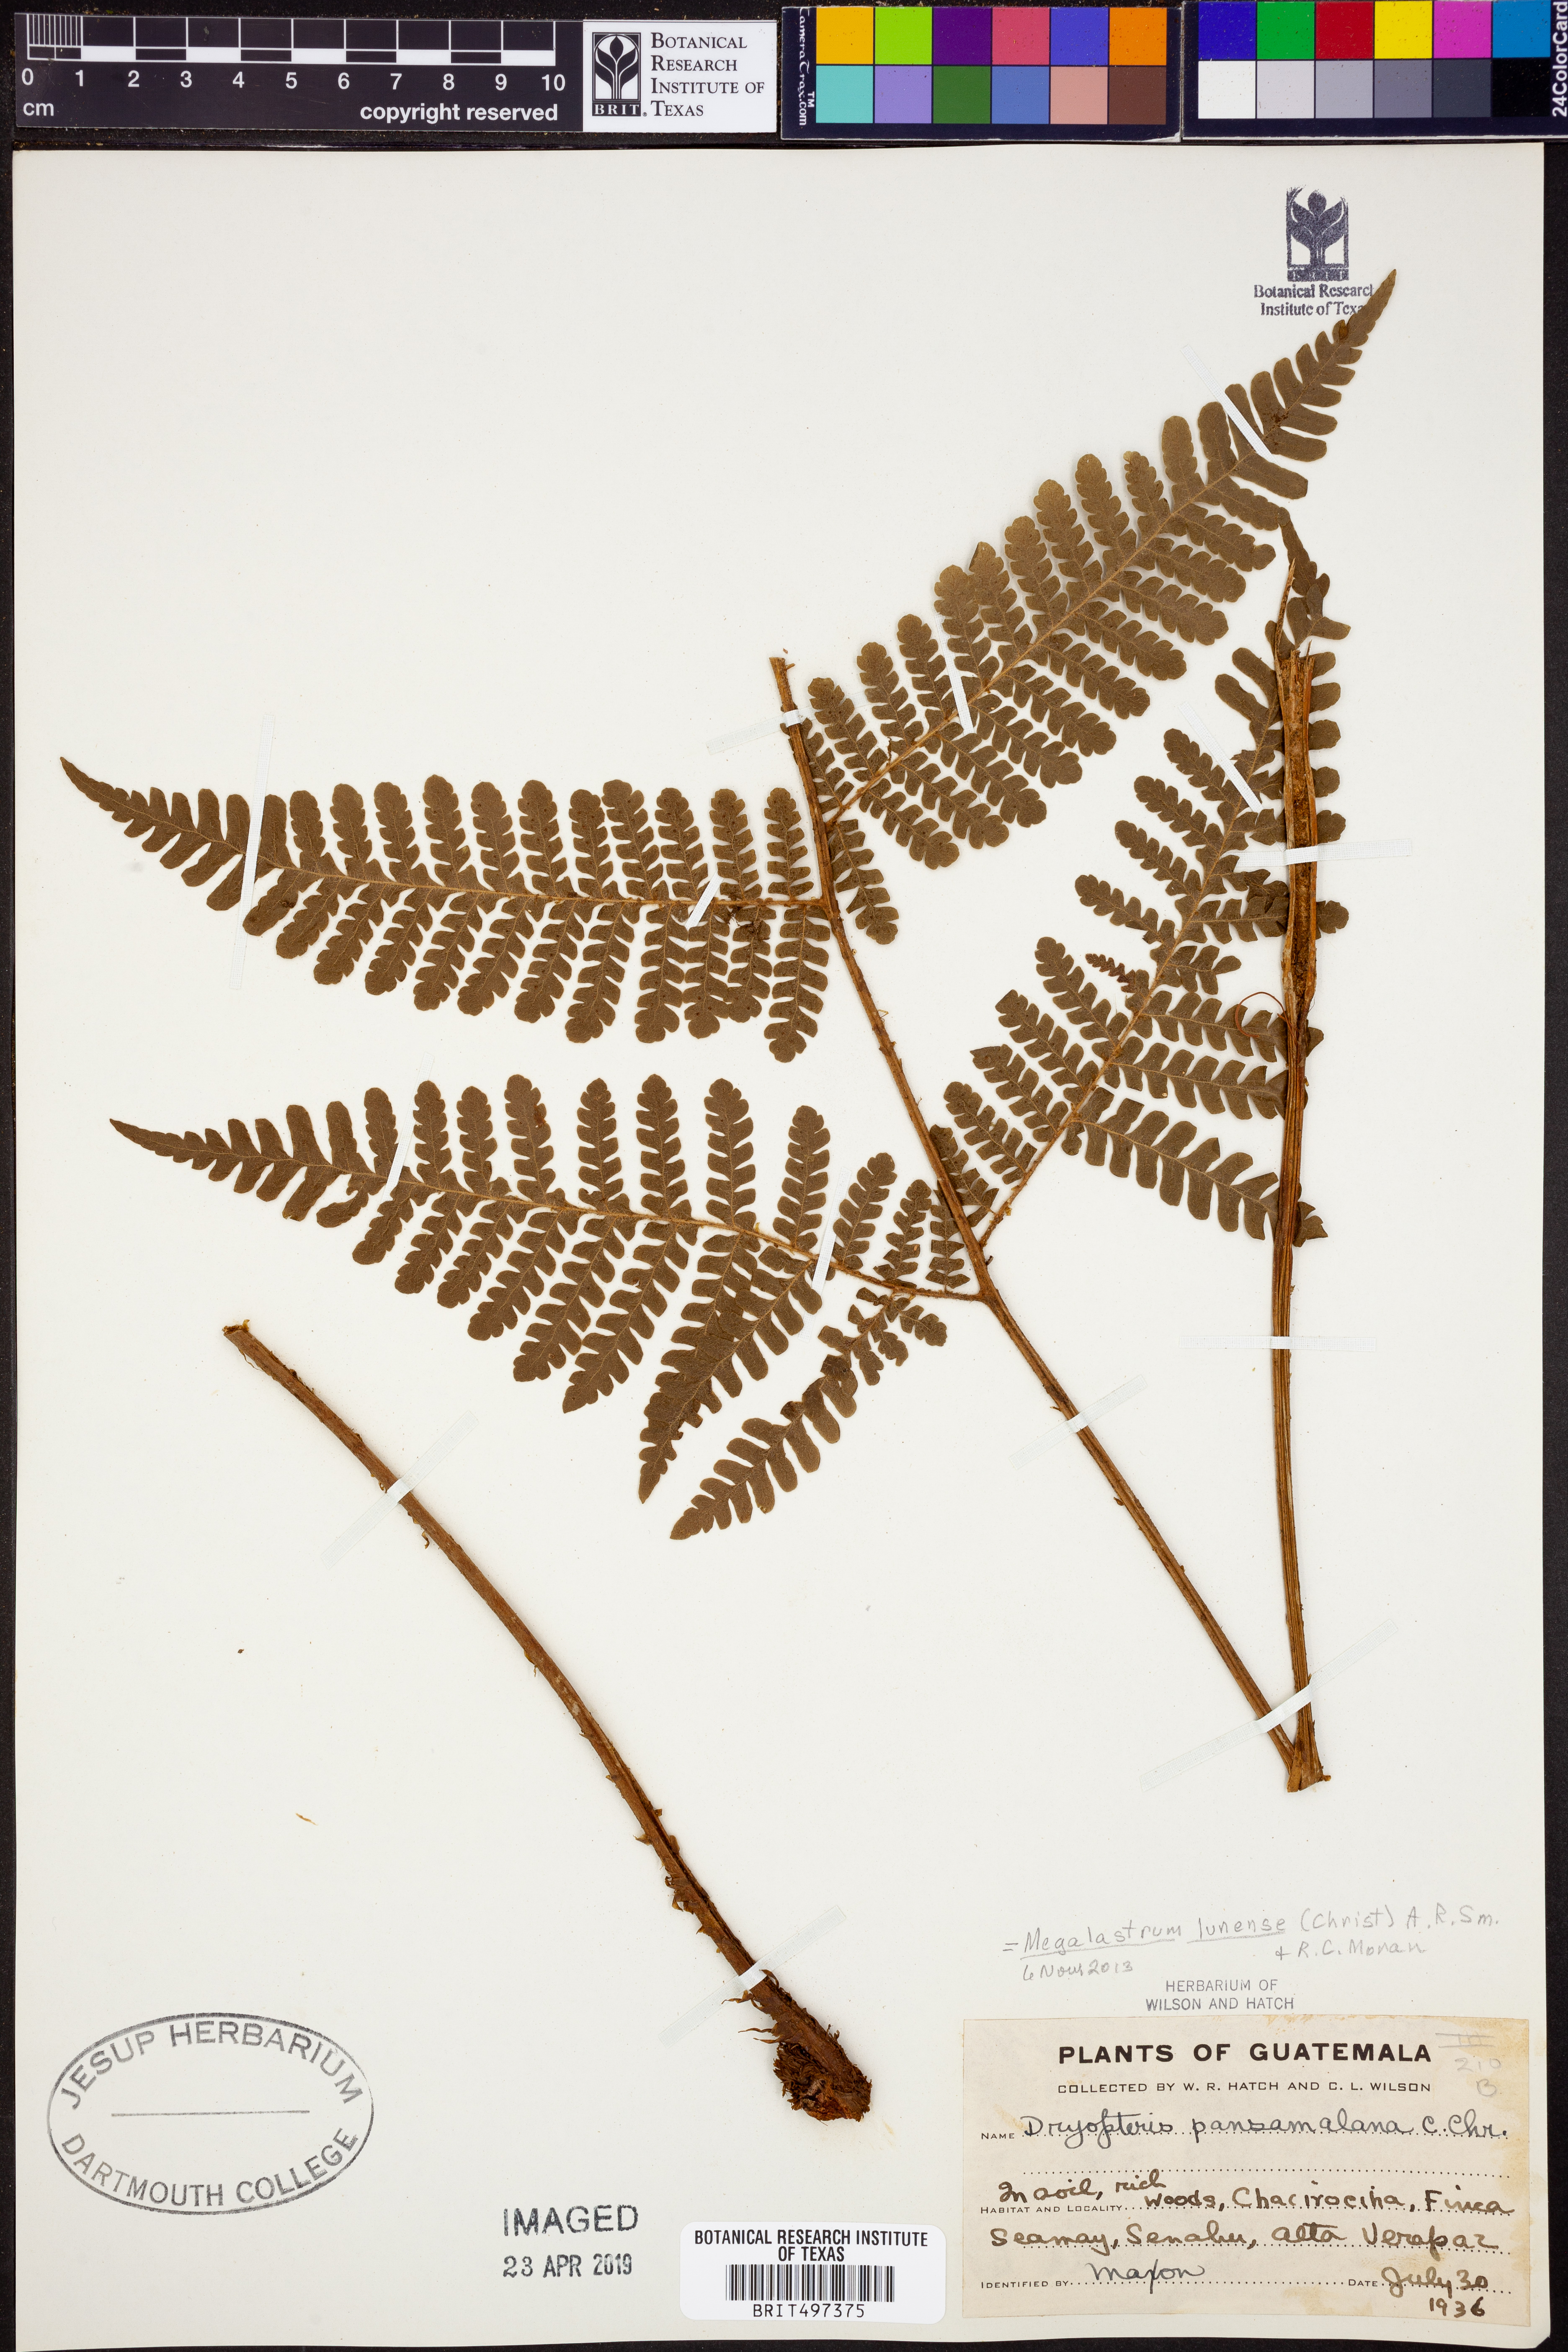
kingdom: Plantae
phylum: Tracheophyta
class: Polypodiopsida
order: Polypodiales
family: Dryopteridaceae
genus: Megalastrum
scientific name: Megalastrum lunense
